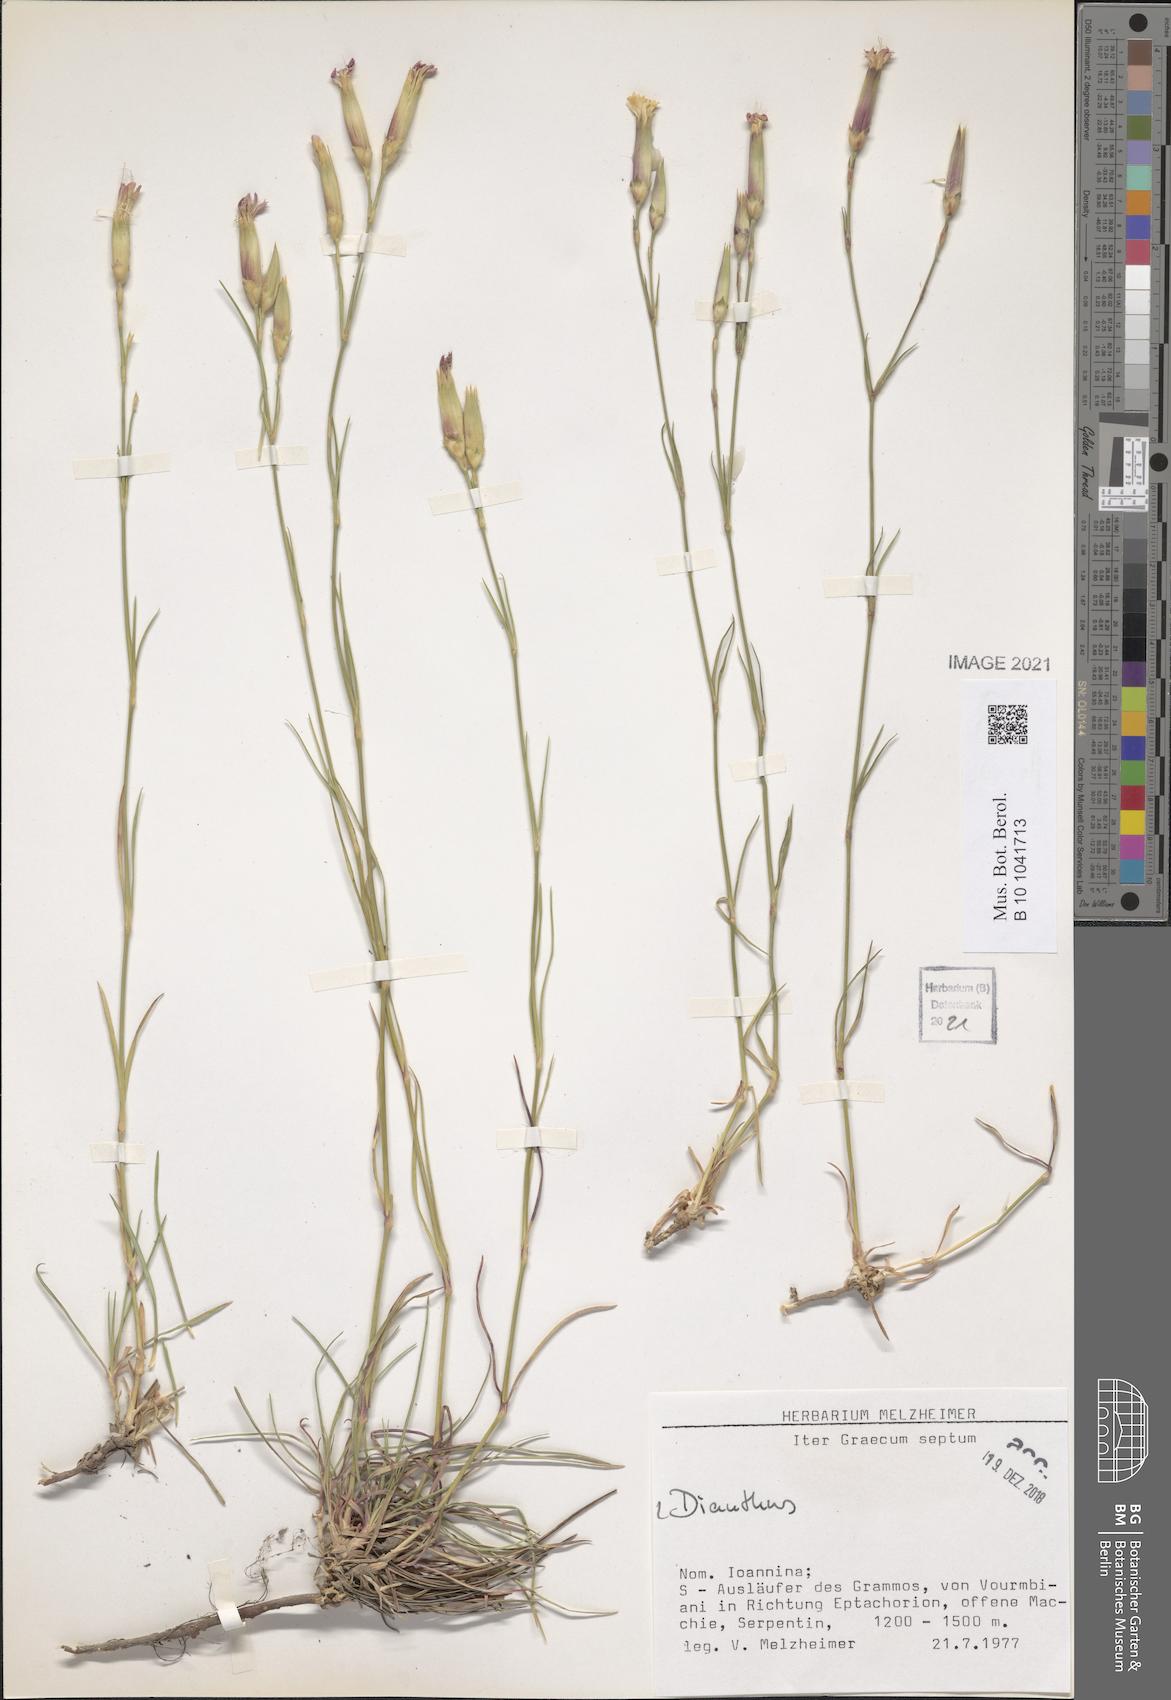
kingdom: Plantae
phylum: Tracheophyta
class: Magnoliopsida
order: Caryophyllales
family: Caryophyllaceae
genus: Dianthus
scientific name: Dianthus
